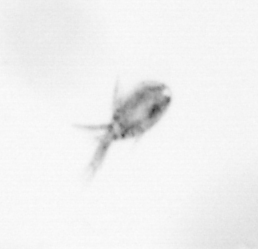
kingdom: Animalia
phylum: Arthropoda
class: Copepoda
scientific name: Copepoda
